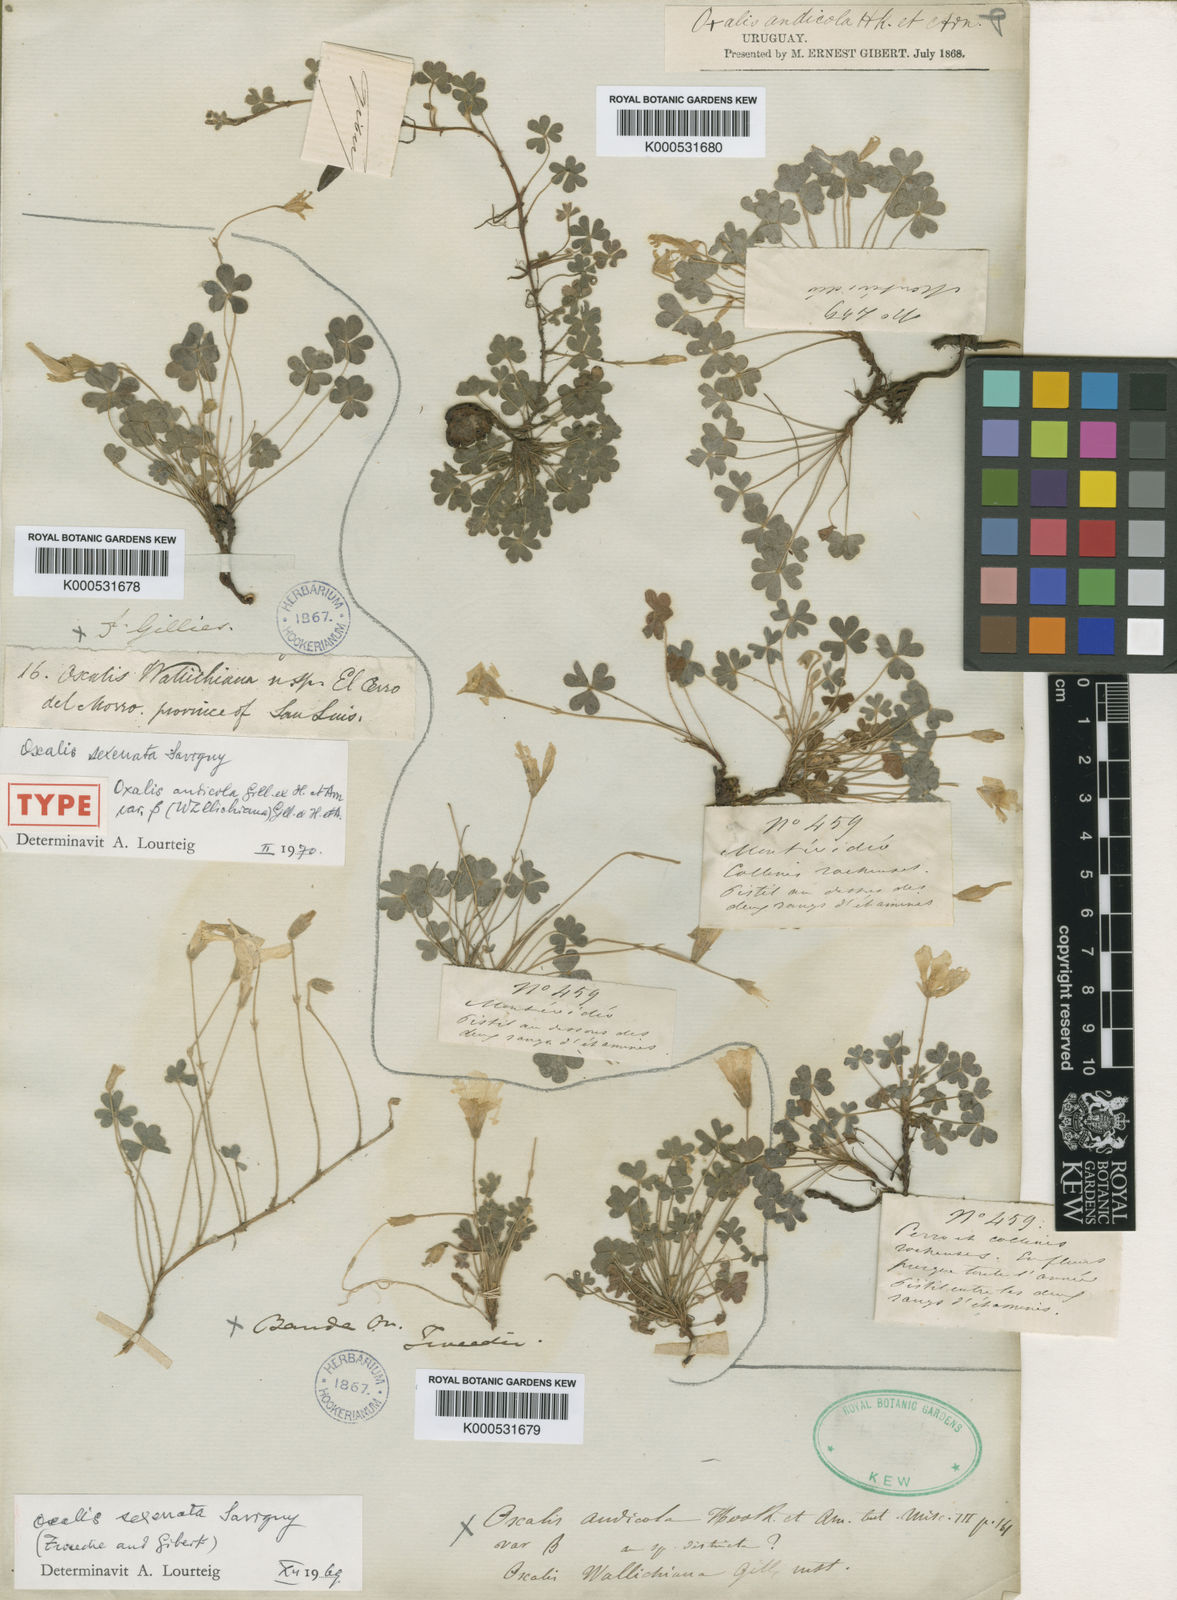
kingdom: Plantae
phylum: Tracheophyta
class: Magnoliopsida
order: Oxalidales
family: Oxalidaceae
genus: Oxalis
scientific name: Oxalis conorrhiza
